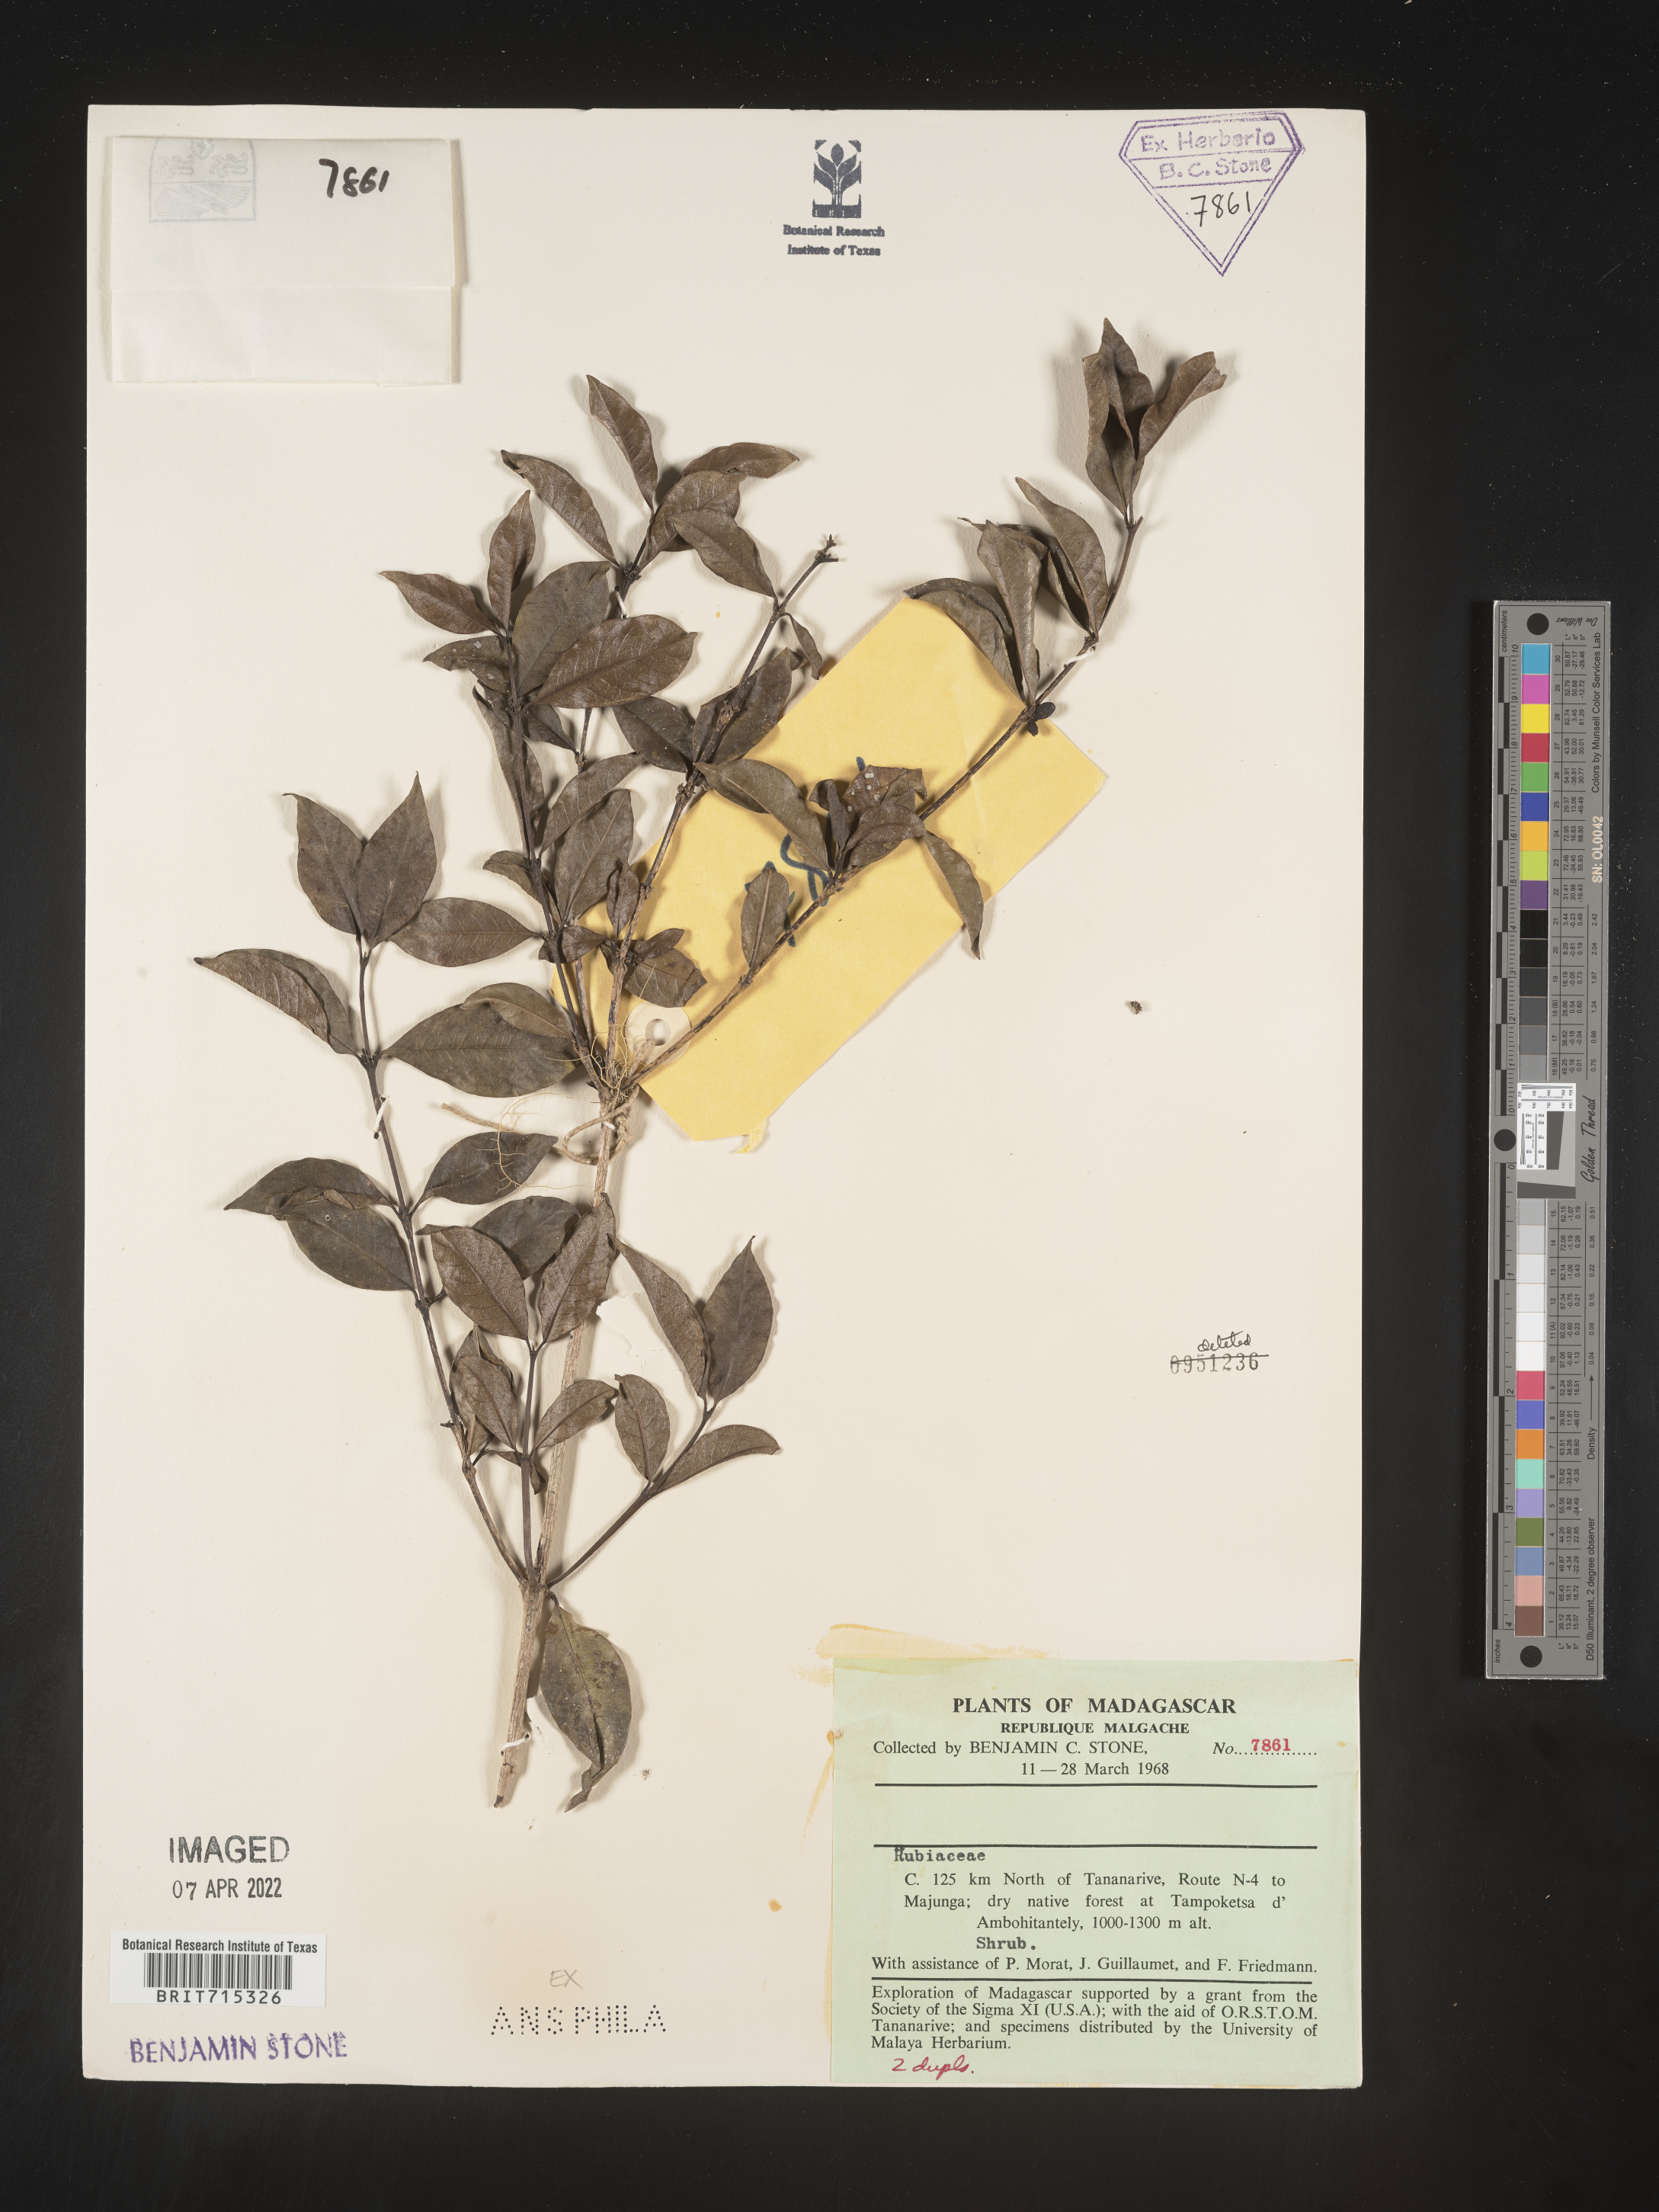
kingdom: Plantae
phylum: Tracheophyta
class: Magnoliopsida
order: Gentianales
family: Rubiaceae
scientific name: Rubiaceae
